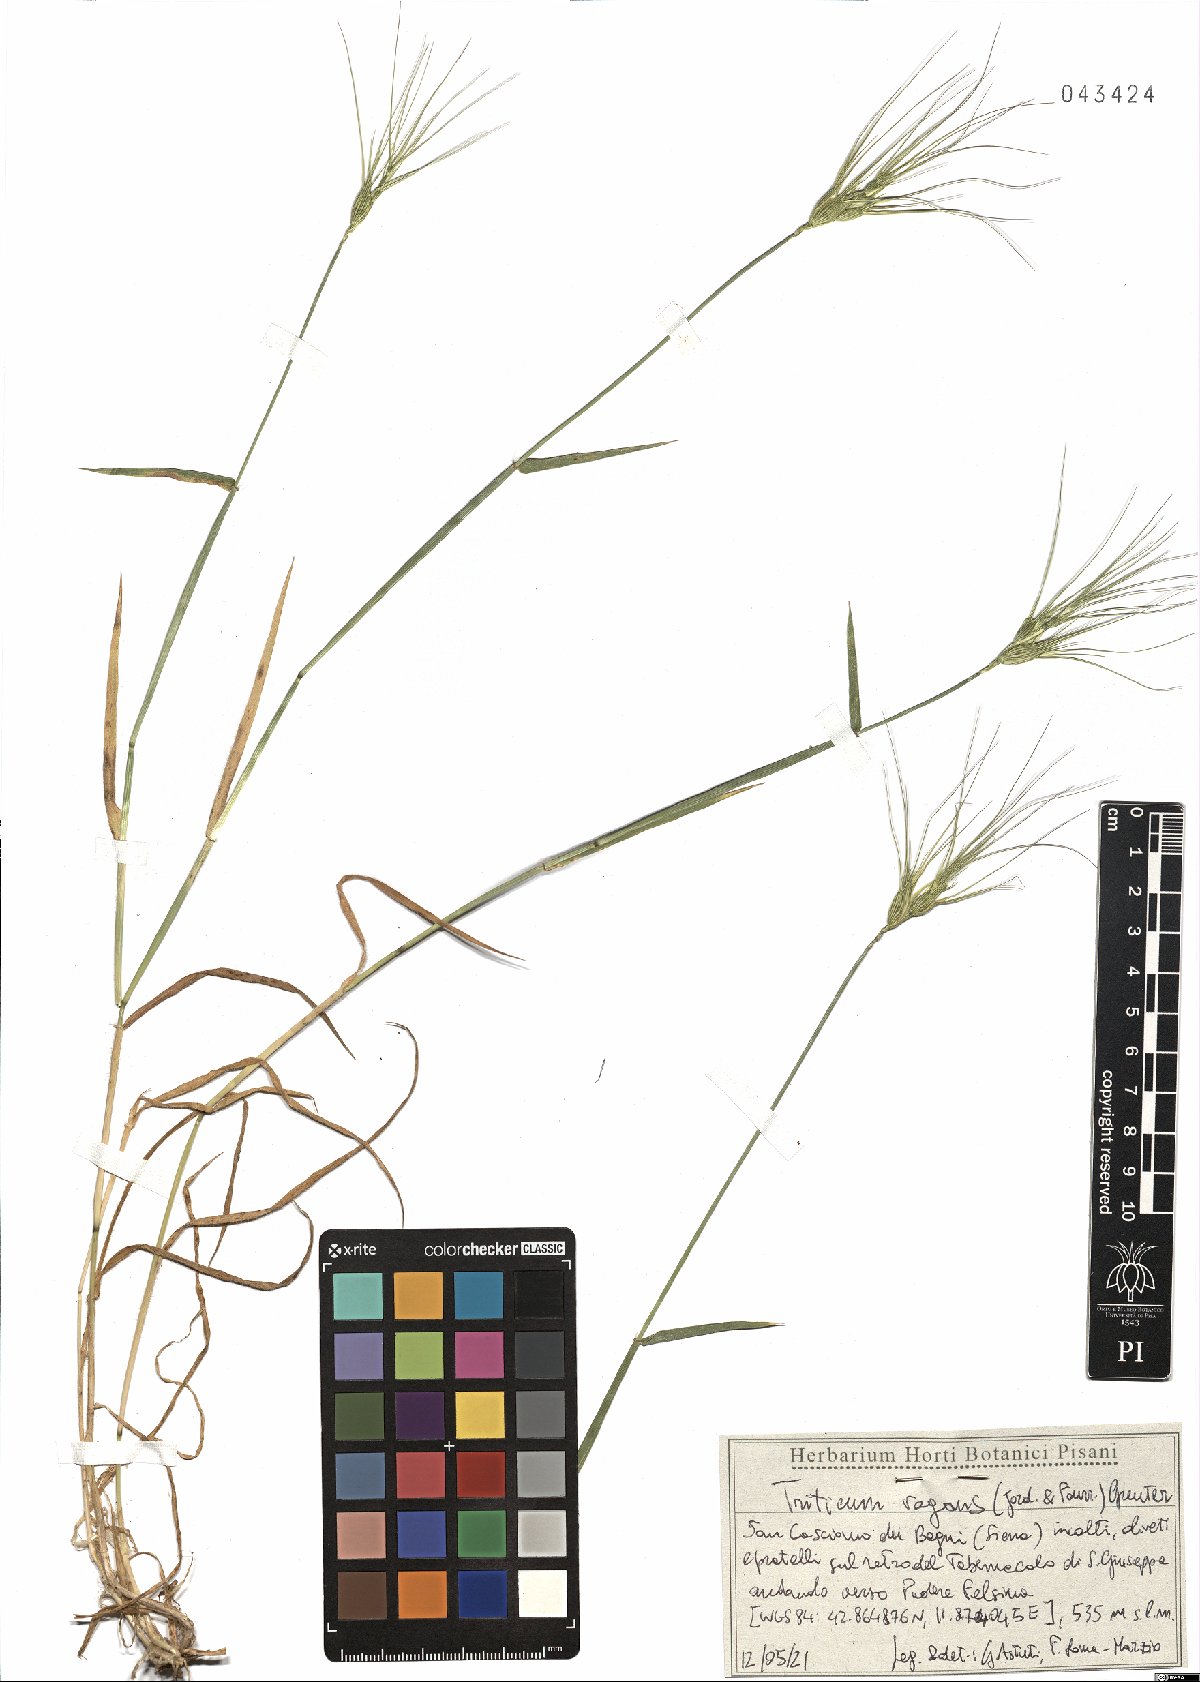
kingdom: Plantae
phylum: Tracheophyta
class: Liliopsida
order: Poales
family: Poaceae
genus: Aegilops
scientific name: Aegilops geniculata
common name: Ovate goat grass
